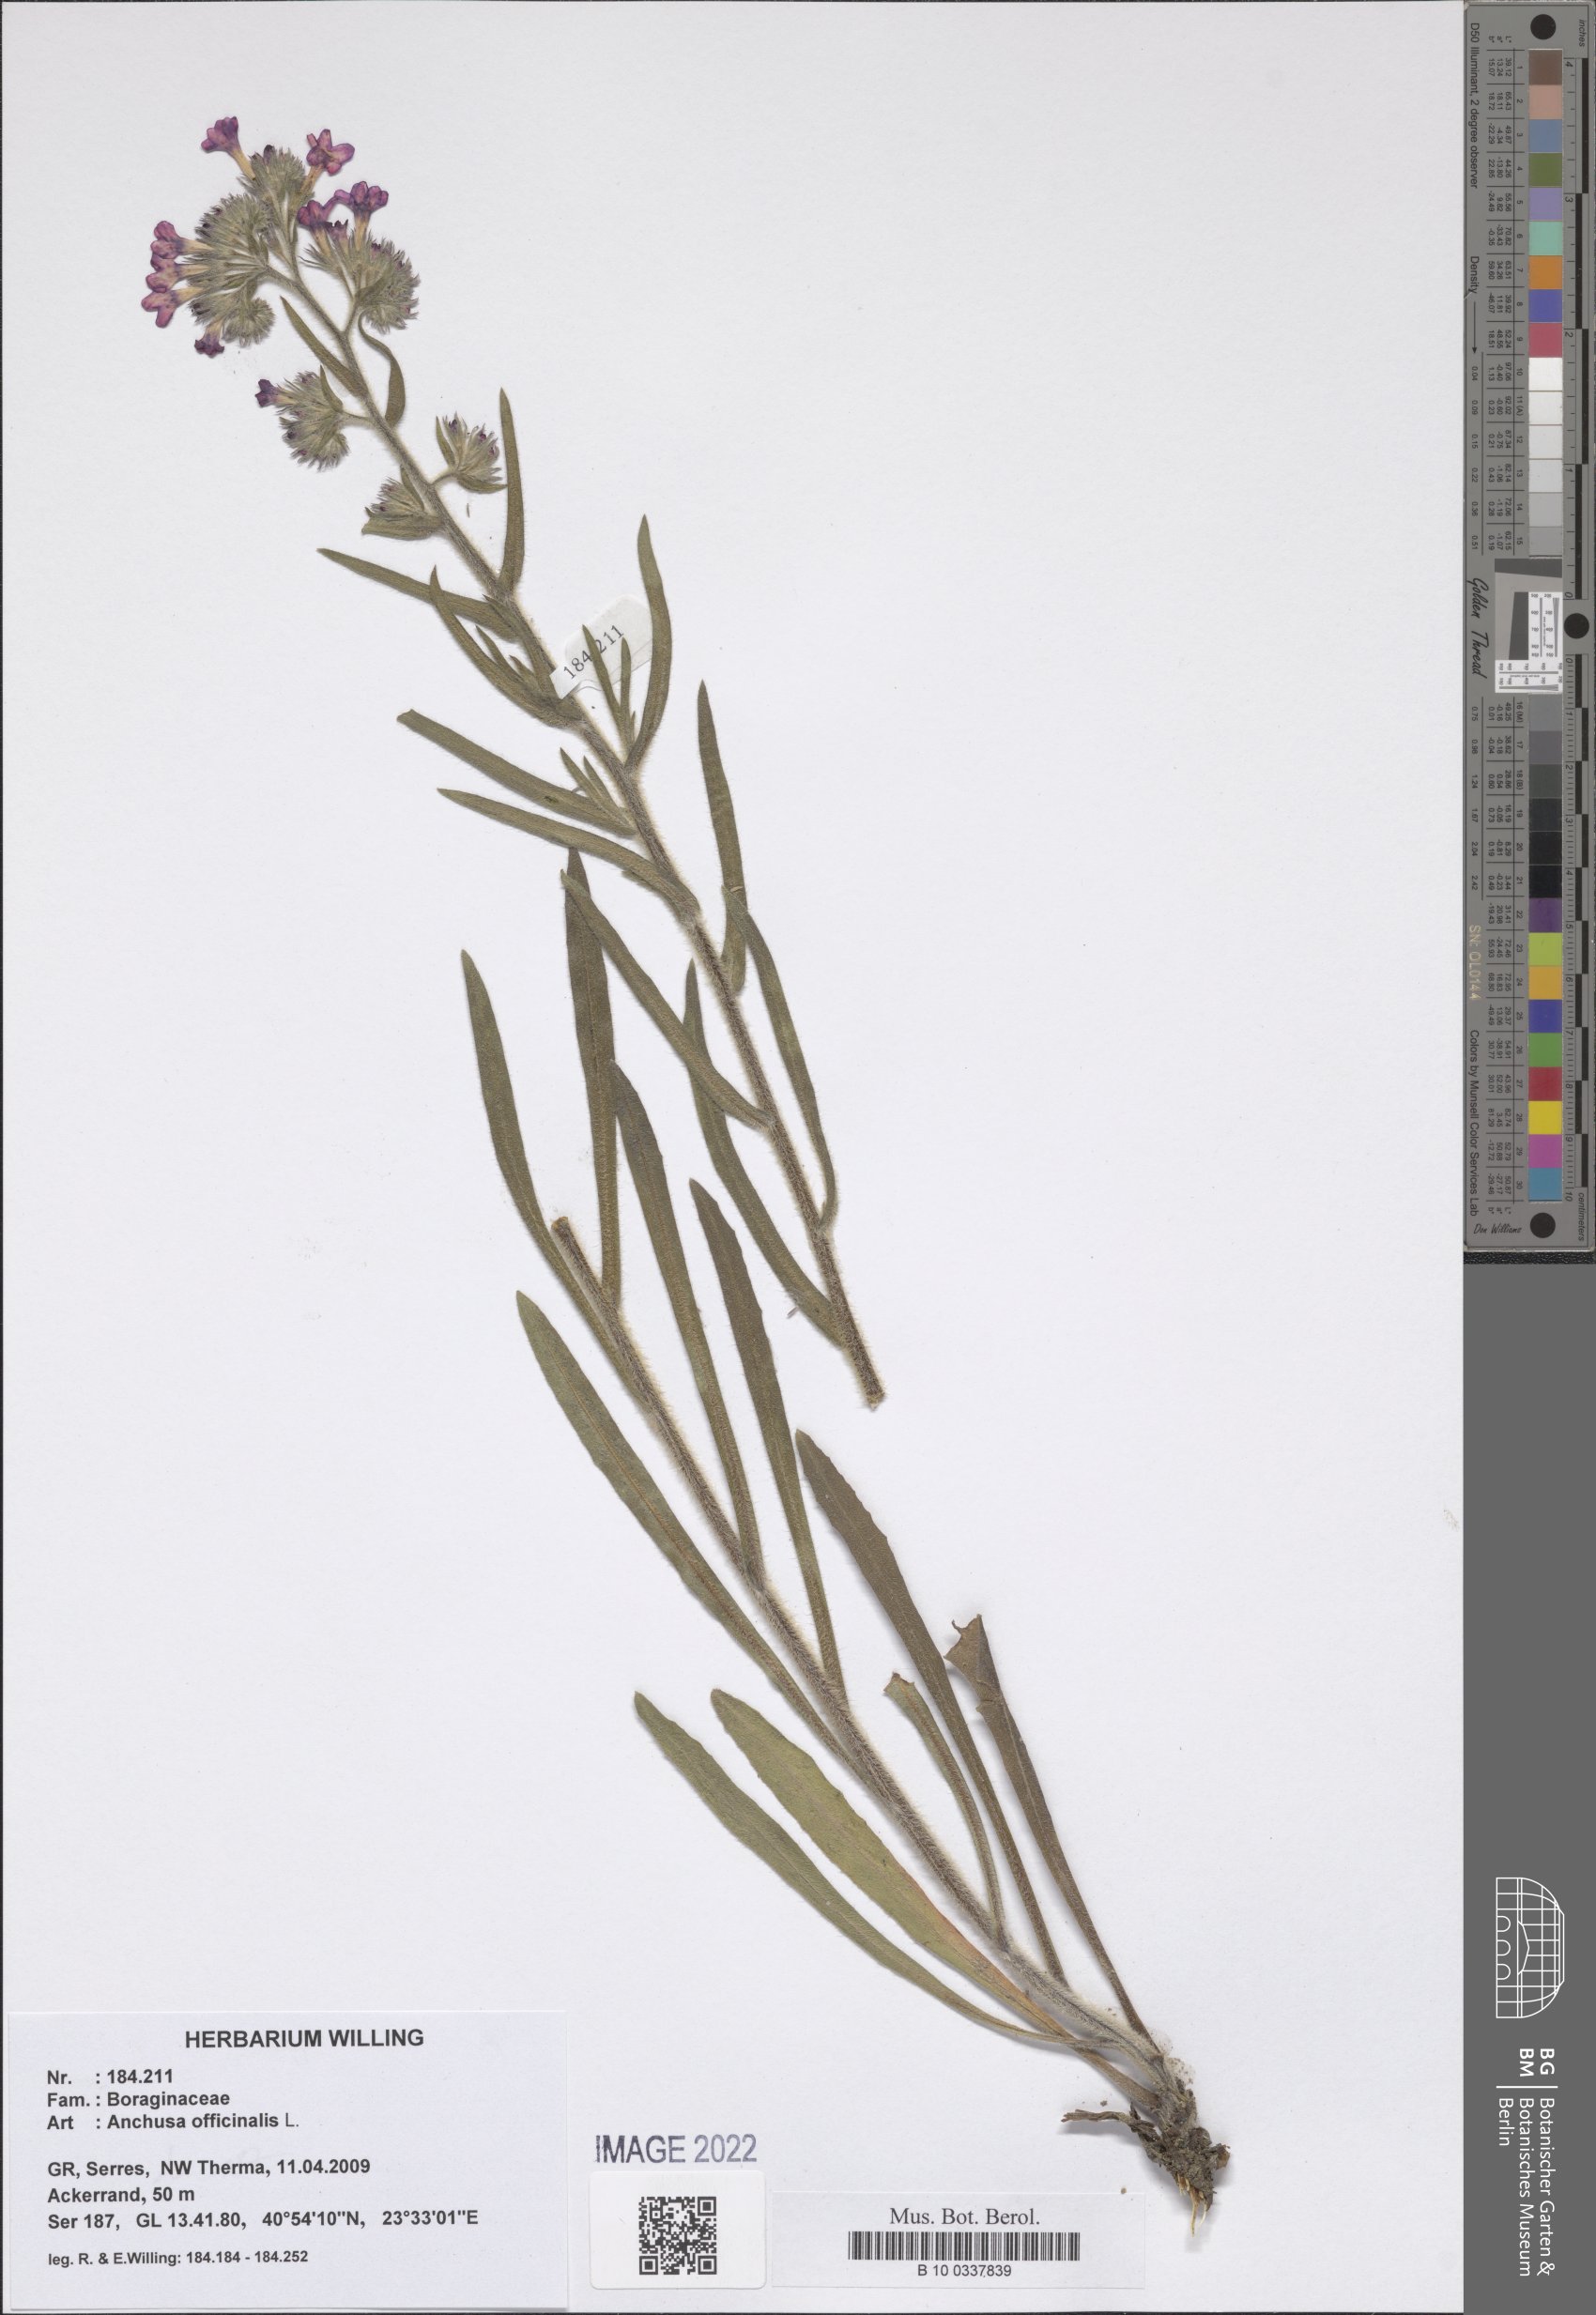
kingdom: Plantae
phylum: Tracheophyta
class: Magnoliopsida
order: Boraginales
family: Boraginaceae
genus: Anchusa
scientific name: Anchusa officinalis
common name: Alkanet
